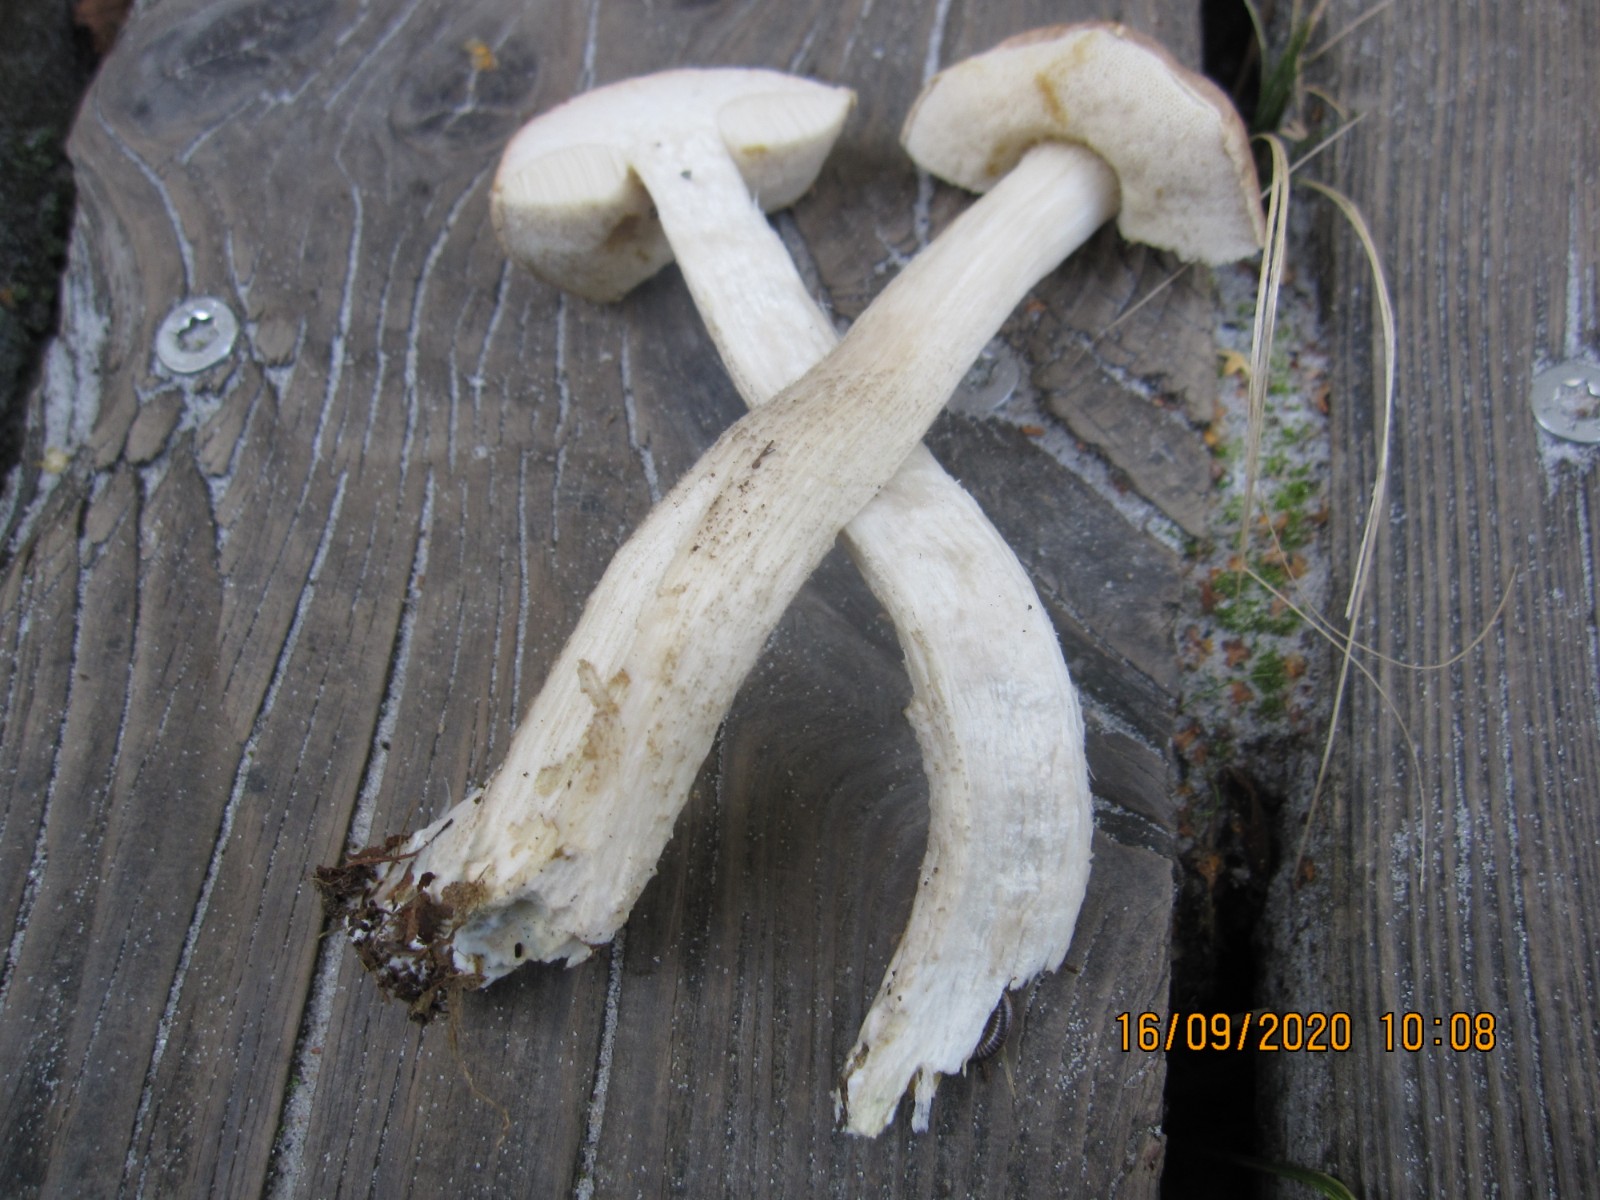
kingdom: Fungi
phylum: Basidiomycota
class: Agaricomycetes
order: Boletales
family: Boletaceae
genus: Leccinum
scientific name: Leccinum cyaneobasileucum
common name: almindelig skælrørhat
